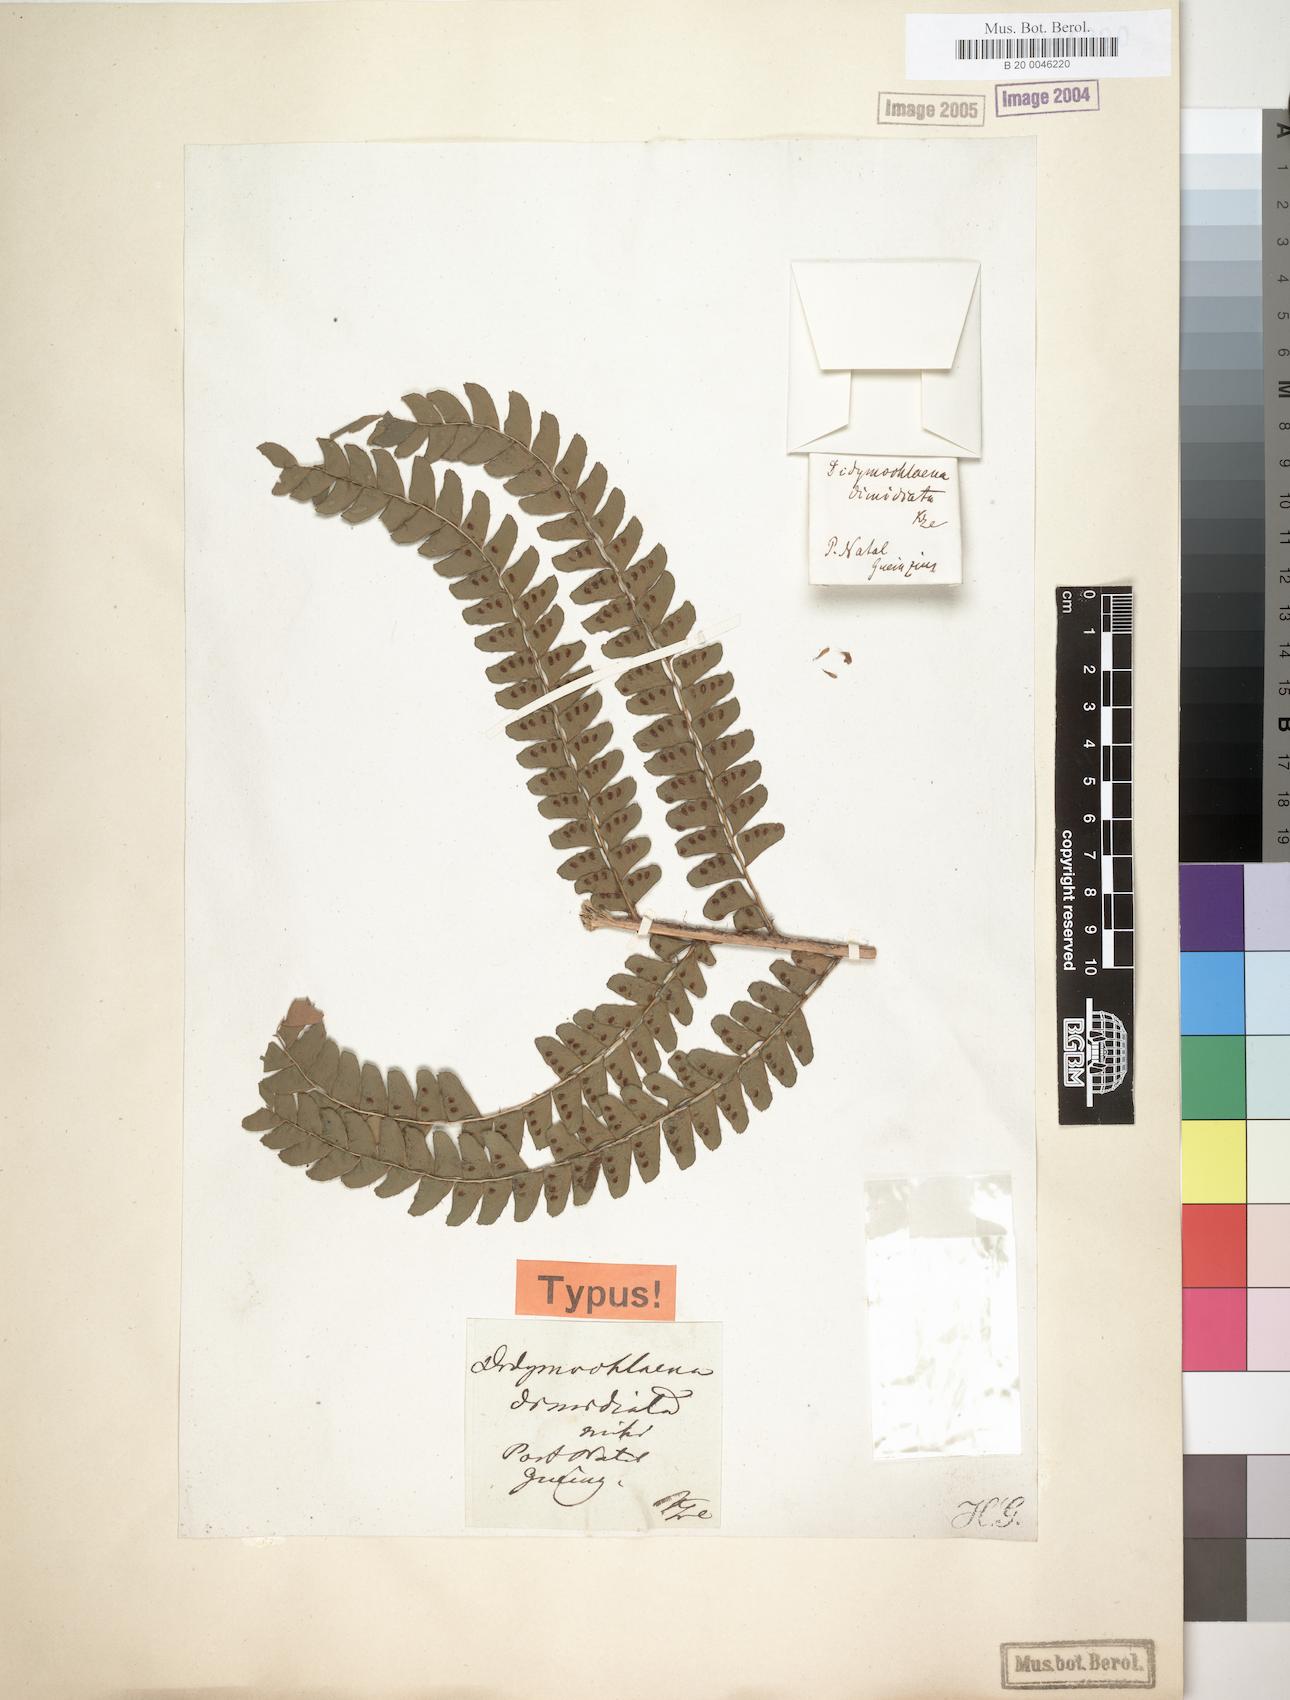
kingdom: Plantae
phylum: Tracheophyta
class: Polypodiopsida
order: Polypodiales
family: Didymochlaenaceae
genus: Didymochlaena
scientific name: Didymochlaena truncatula
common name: Mahogany fern
